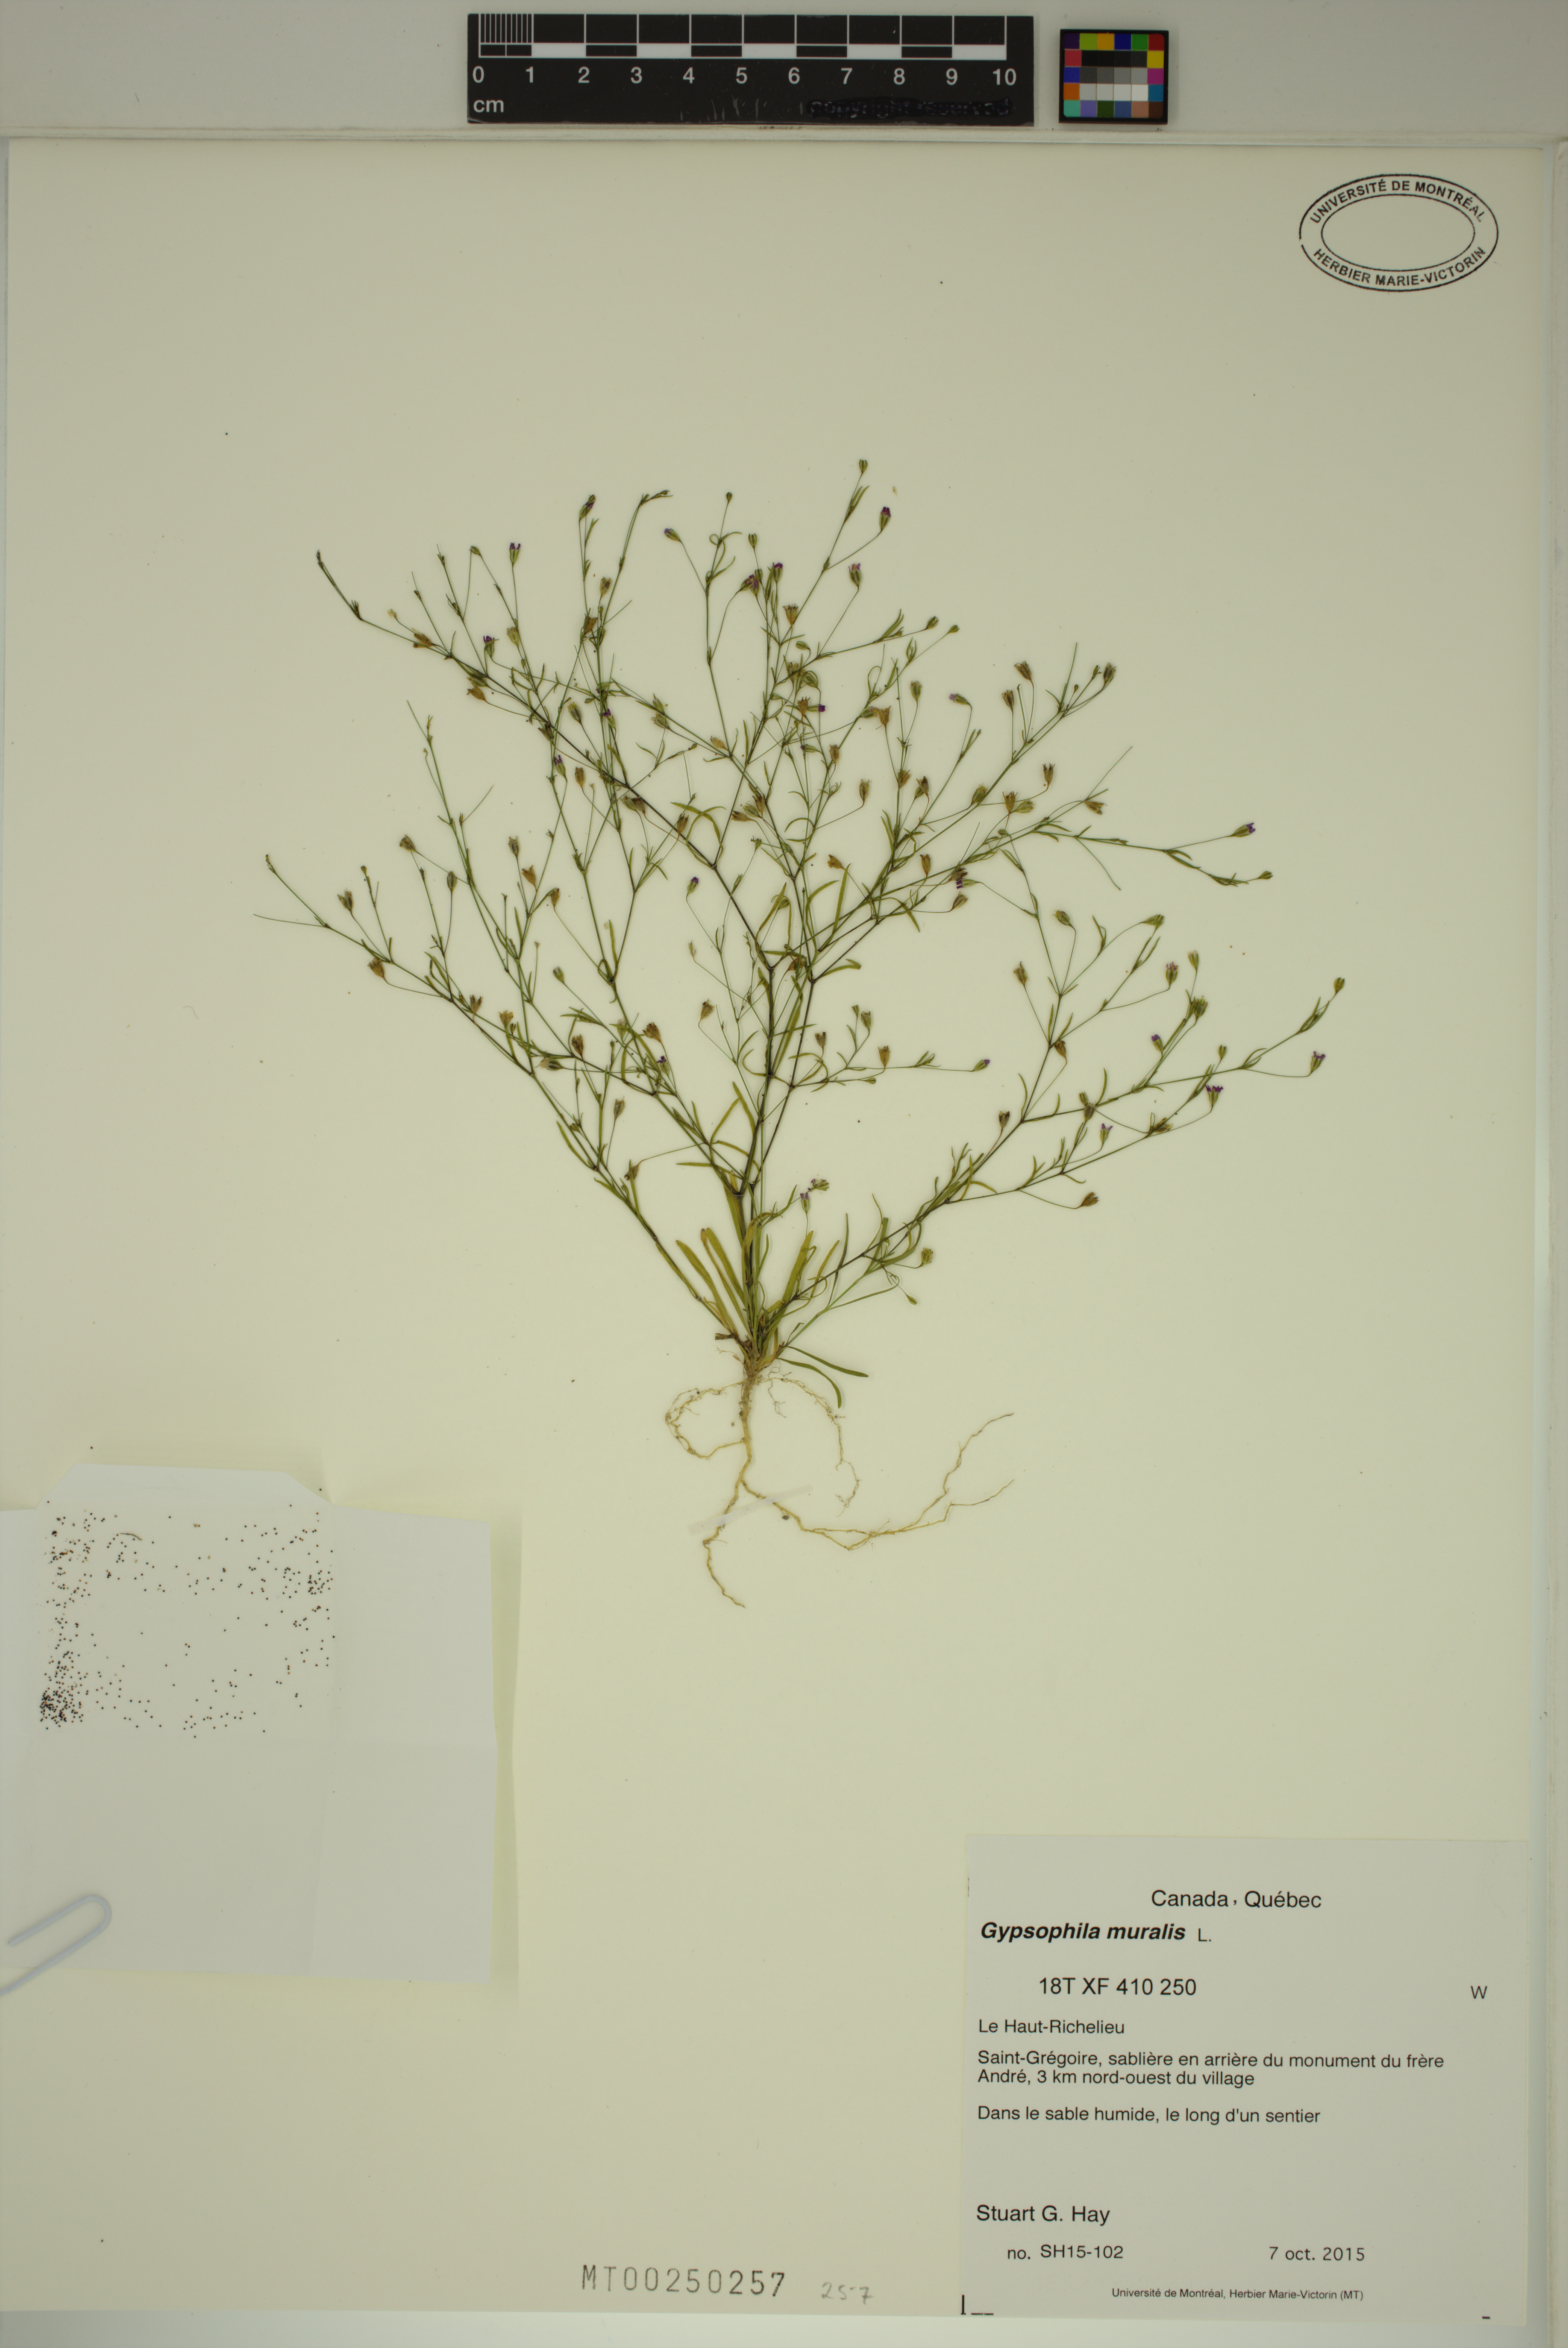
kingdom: Plantae
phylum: Tracheophyta
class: Magnoliopsida
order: Caryophyllales
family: Caryophyllaceae
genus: Psammophiliella
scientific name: Psammophiliella muralis
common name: Cushion baby's-breath
